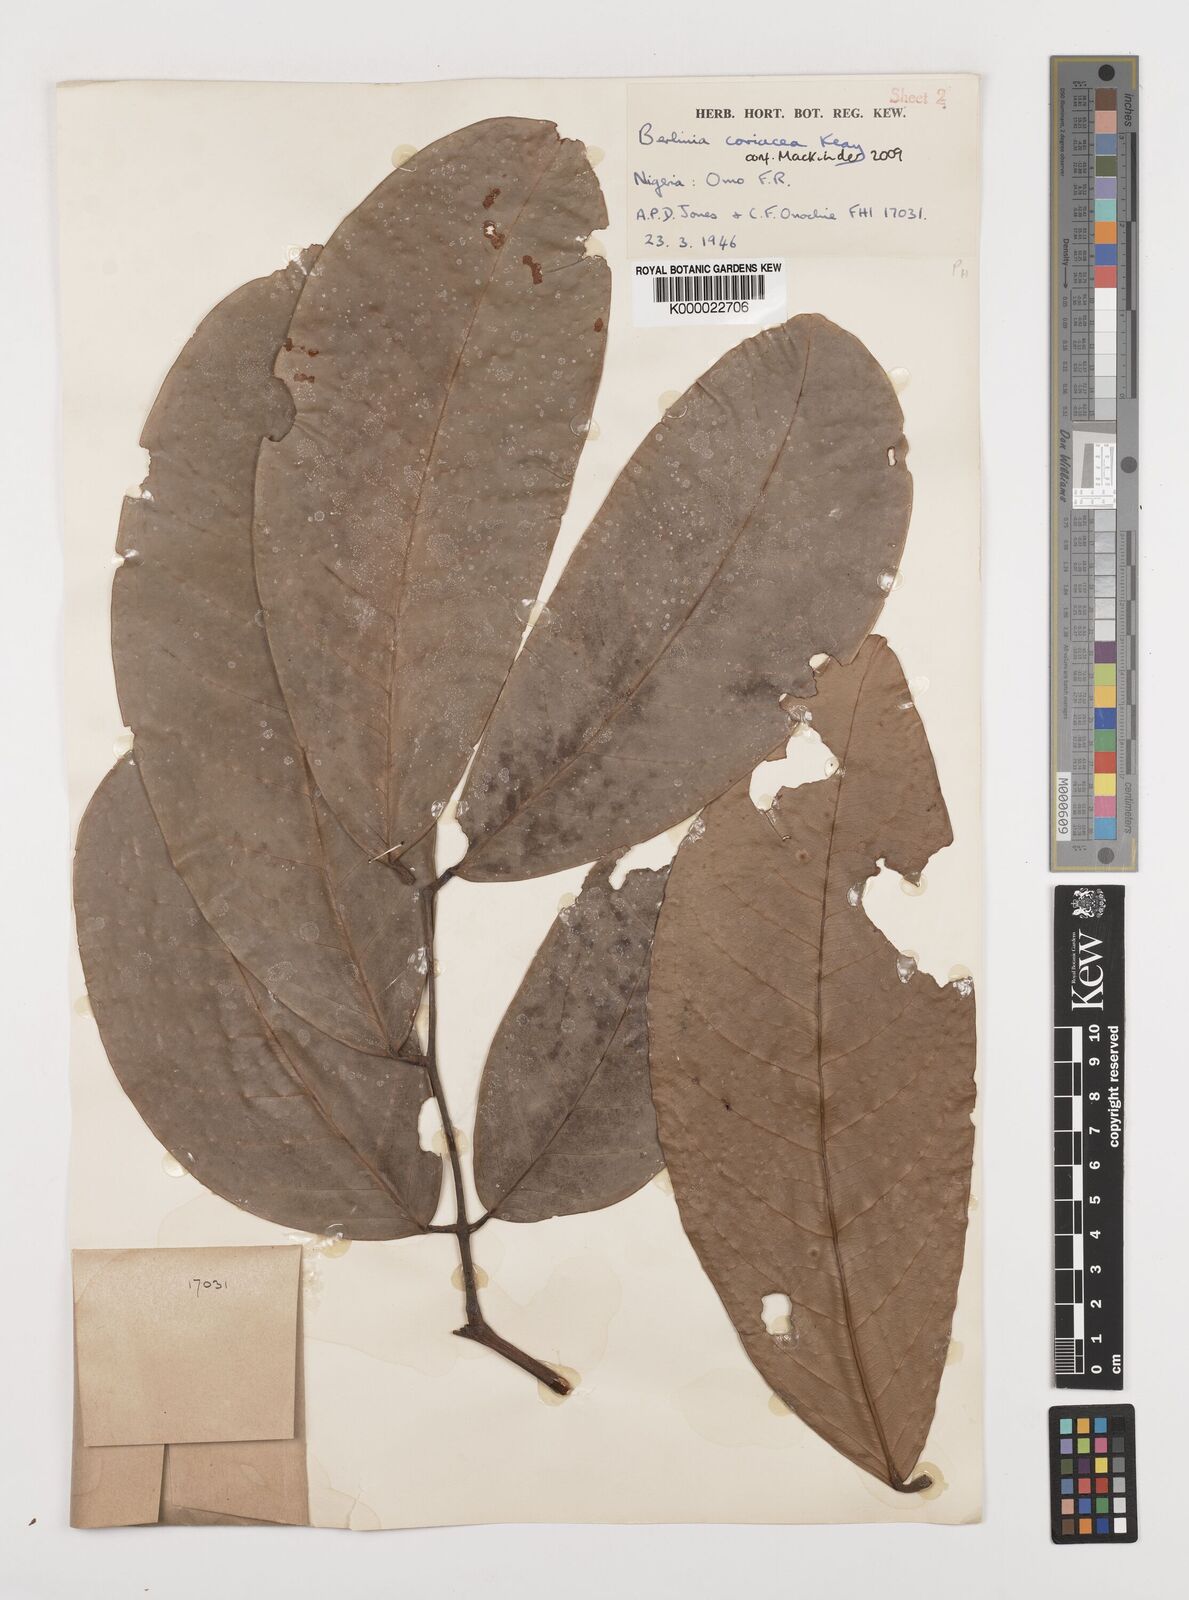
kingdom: Plantae
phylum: Tracheophyta
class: Magnoliopsida
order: Fabales
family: Fabaceae
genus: Berlinia
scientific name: Berlinia coriacea
